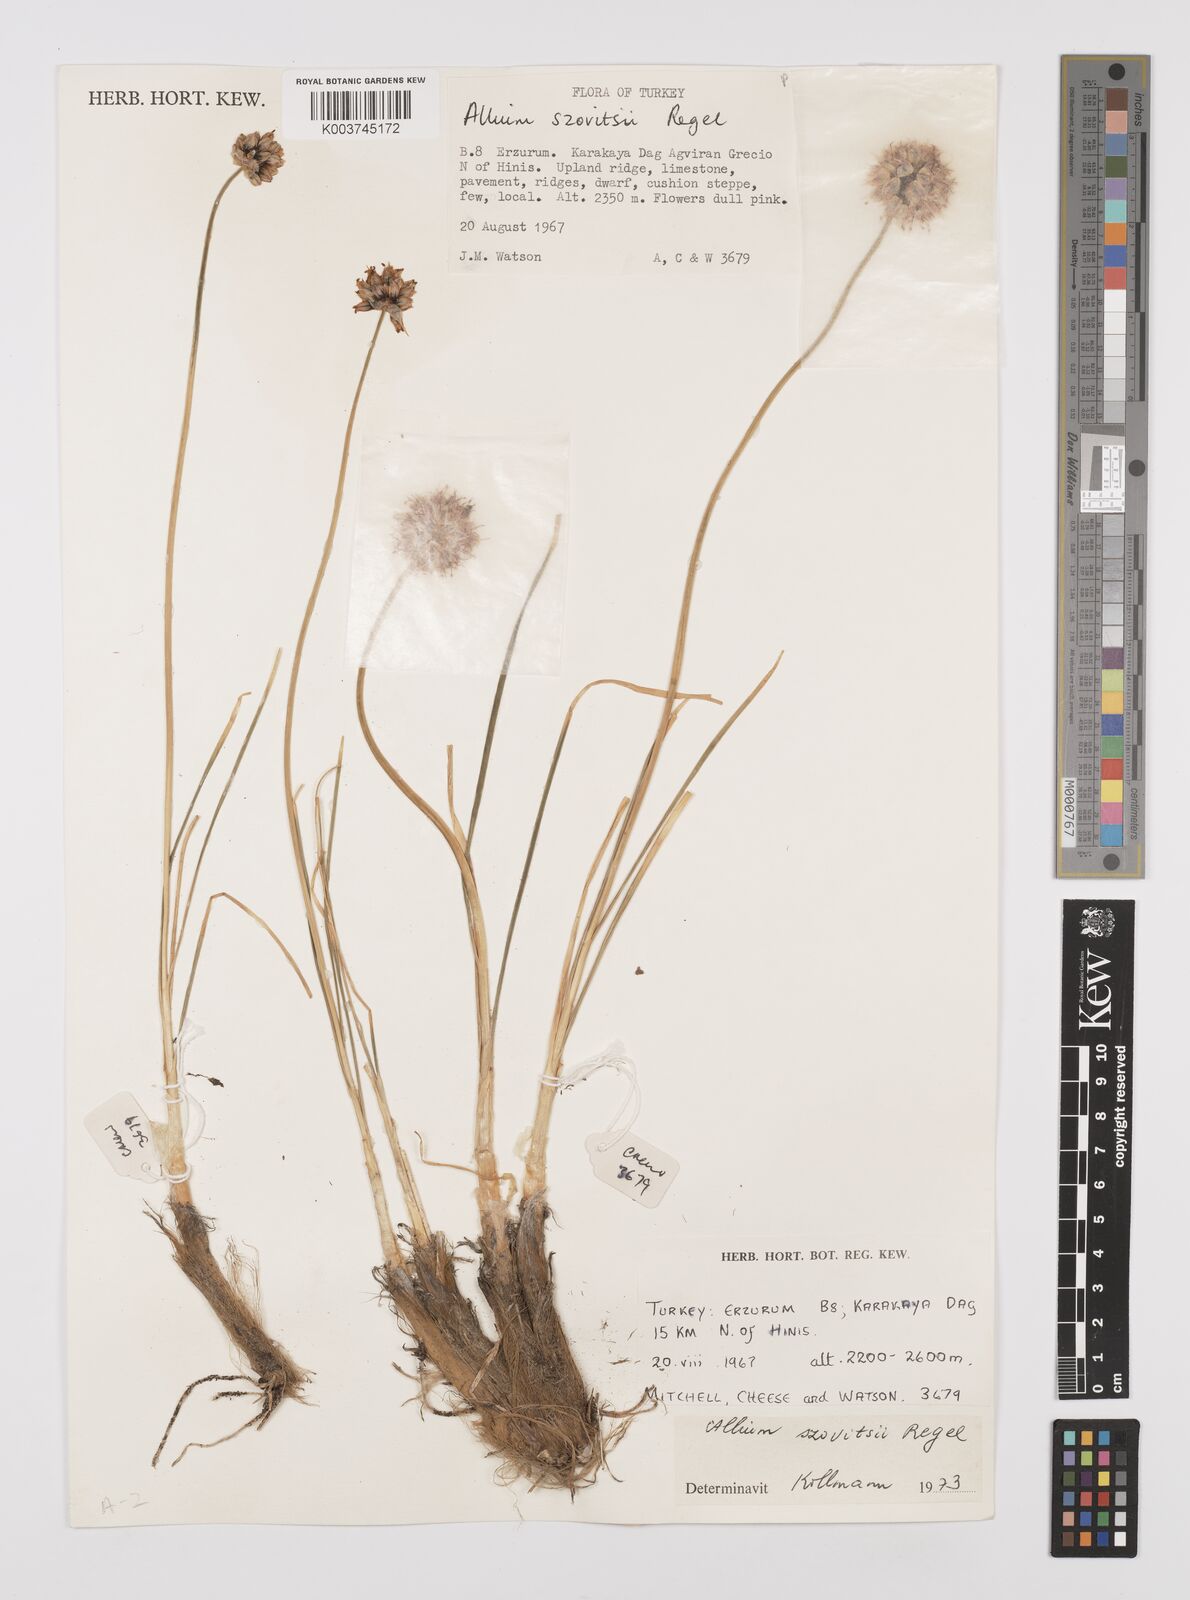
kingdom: Plantae
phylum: Tracheophyta
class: Liliopsida
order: Asparagales
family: Amaryllidaceae
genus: Allium
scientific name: Allium szovitsii
